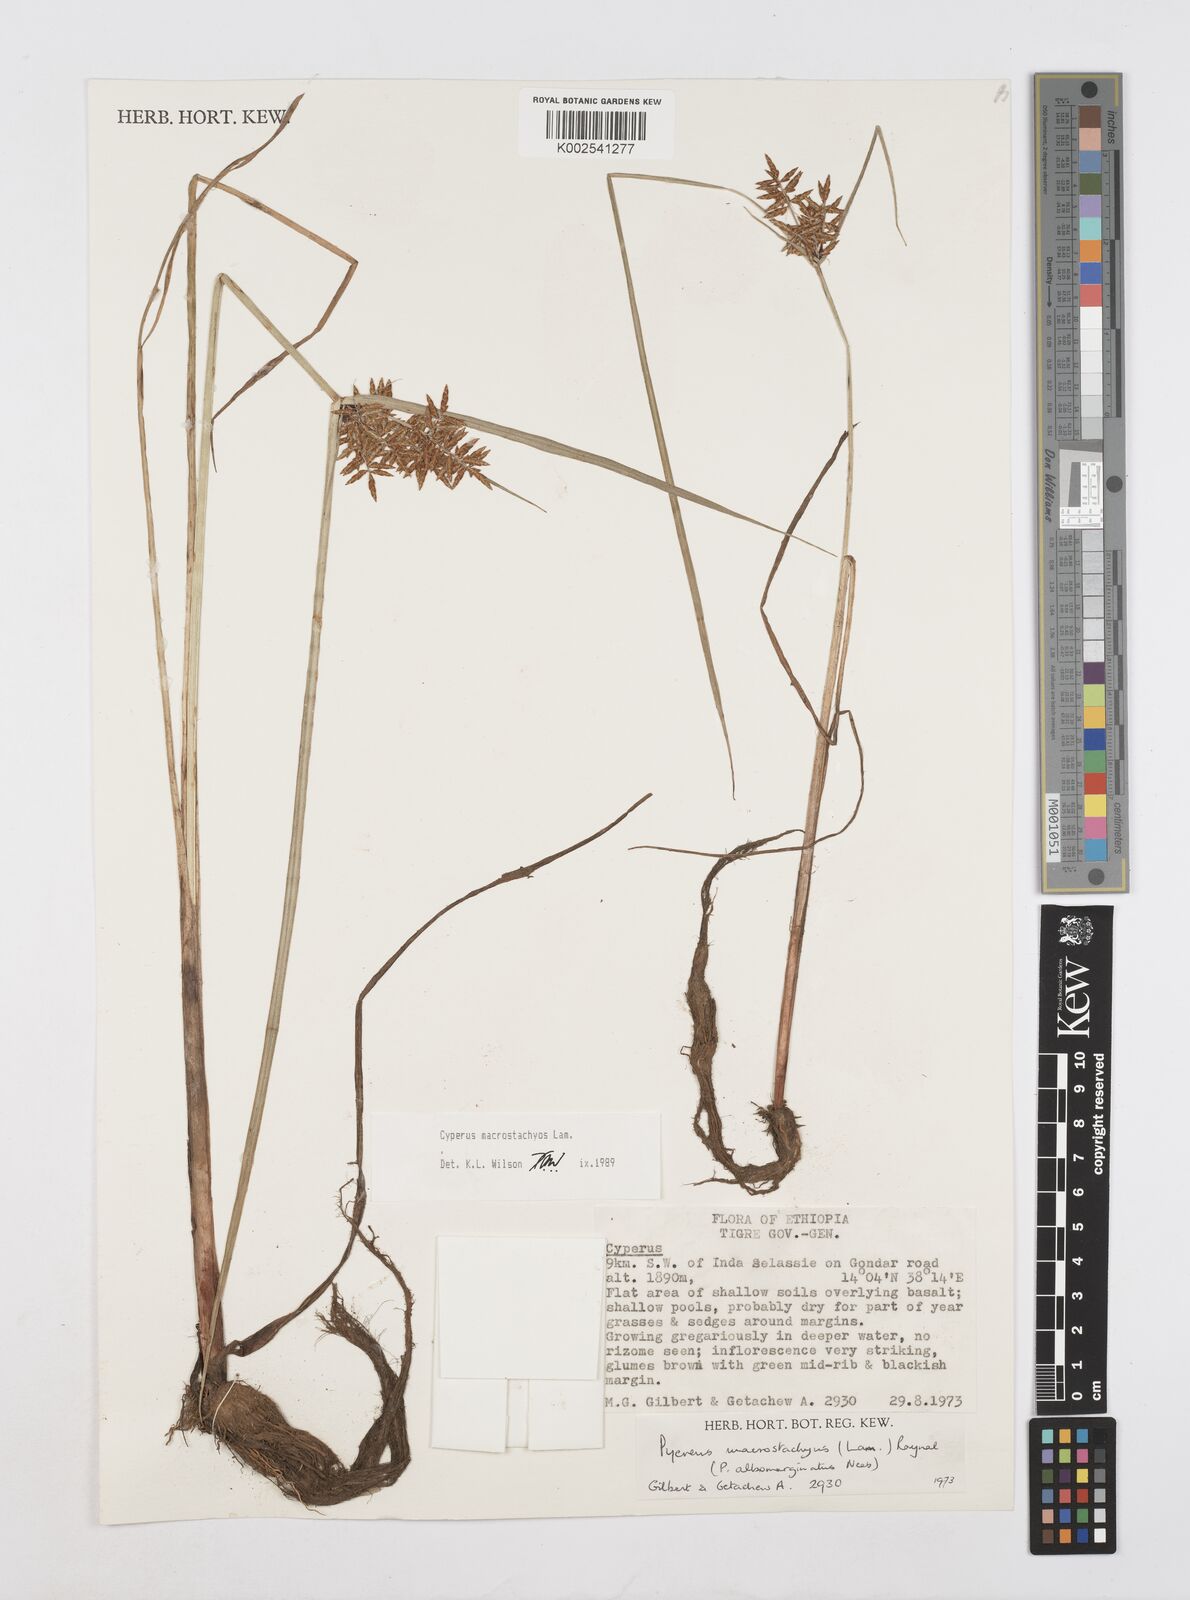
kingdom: Plantae
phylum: Tracheophyta
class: Liliopsida
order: Poales
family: Cyperaceae
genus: Cyperus
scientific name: Cyperus macrostachyos
